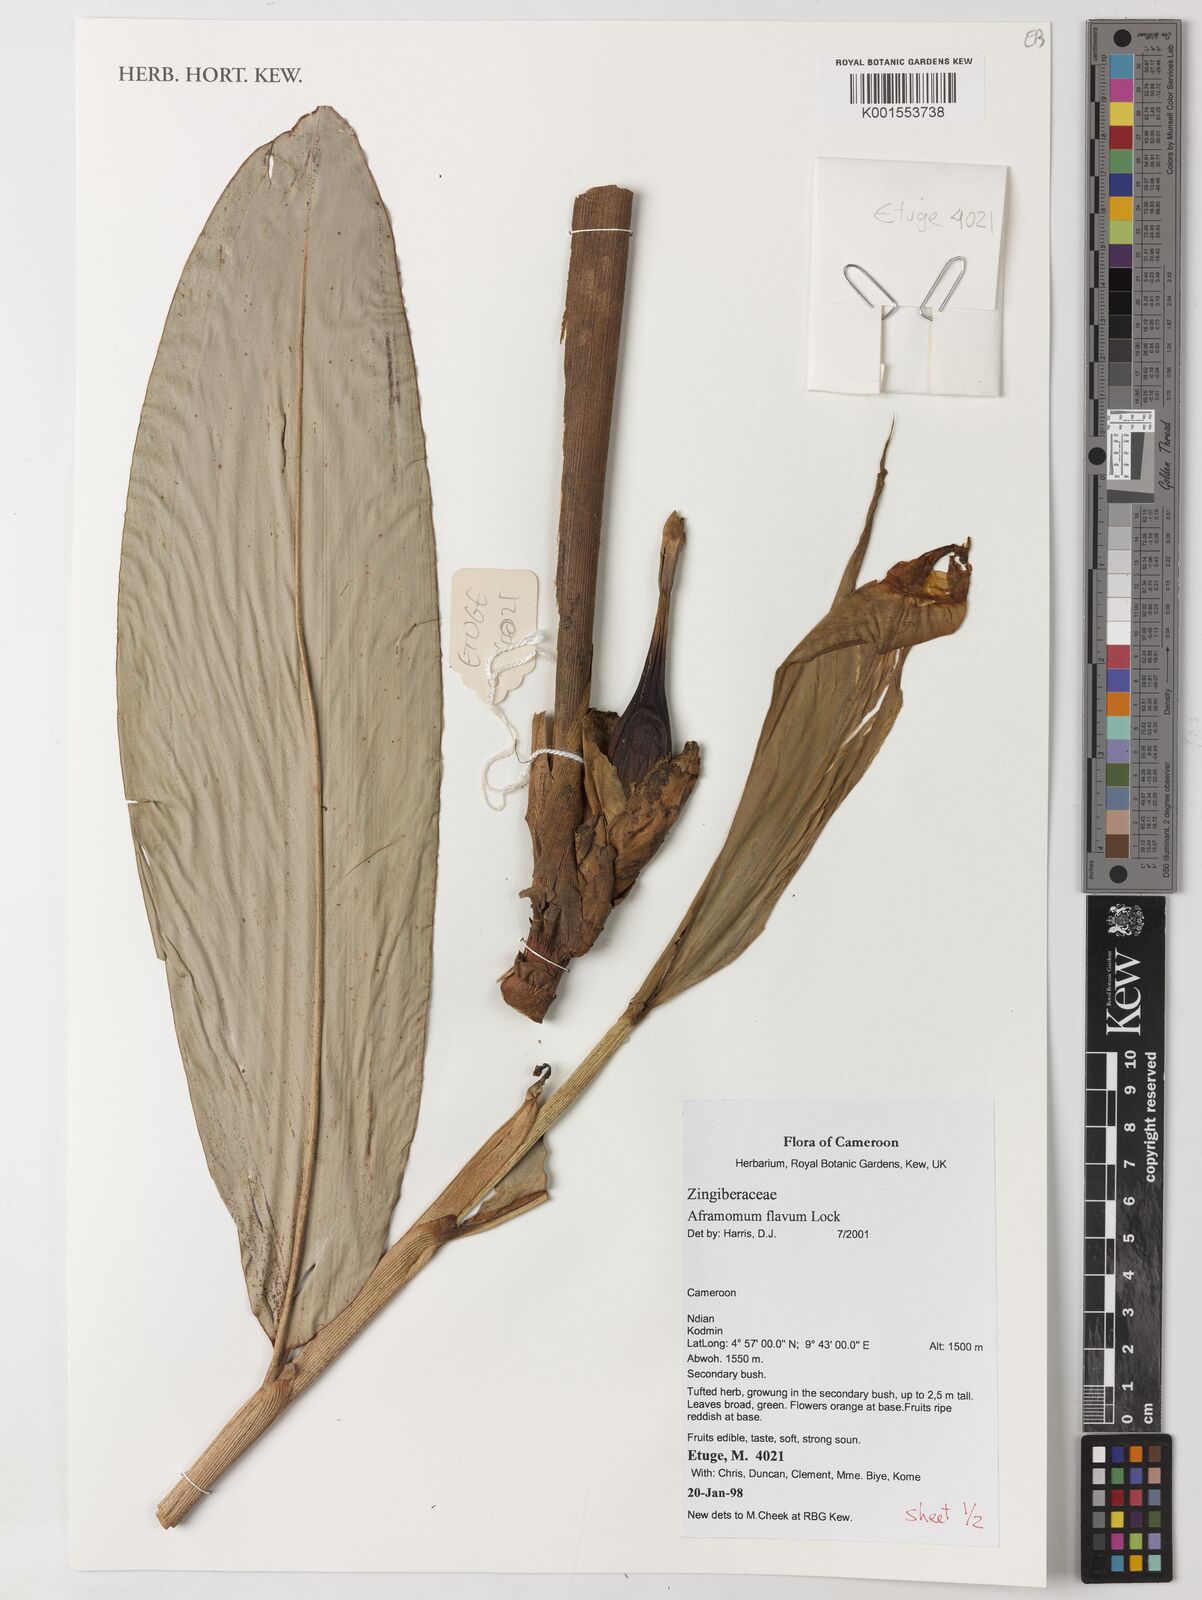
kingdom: Plantae
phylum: Tracheophyta
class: Liliopsida
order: Zingiberales
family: Zingiberaceae
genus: Aframomum
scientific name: Aframomum daniellii
